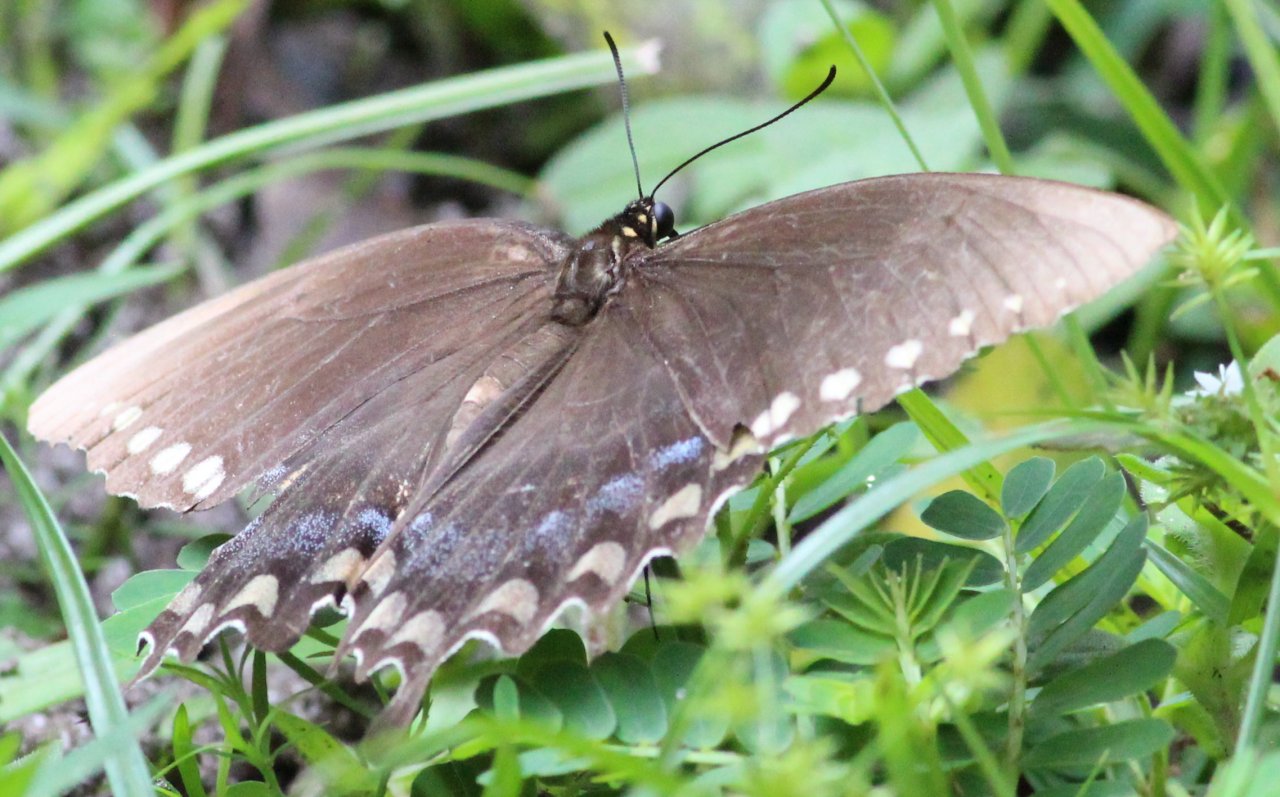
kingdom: Animalia
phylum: Arthropoda
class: Insecta
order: Lepidoptera
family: Papilionidae
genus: Pterourus
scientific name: Pterourus troilus
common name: Spicebush Swallowtail
